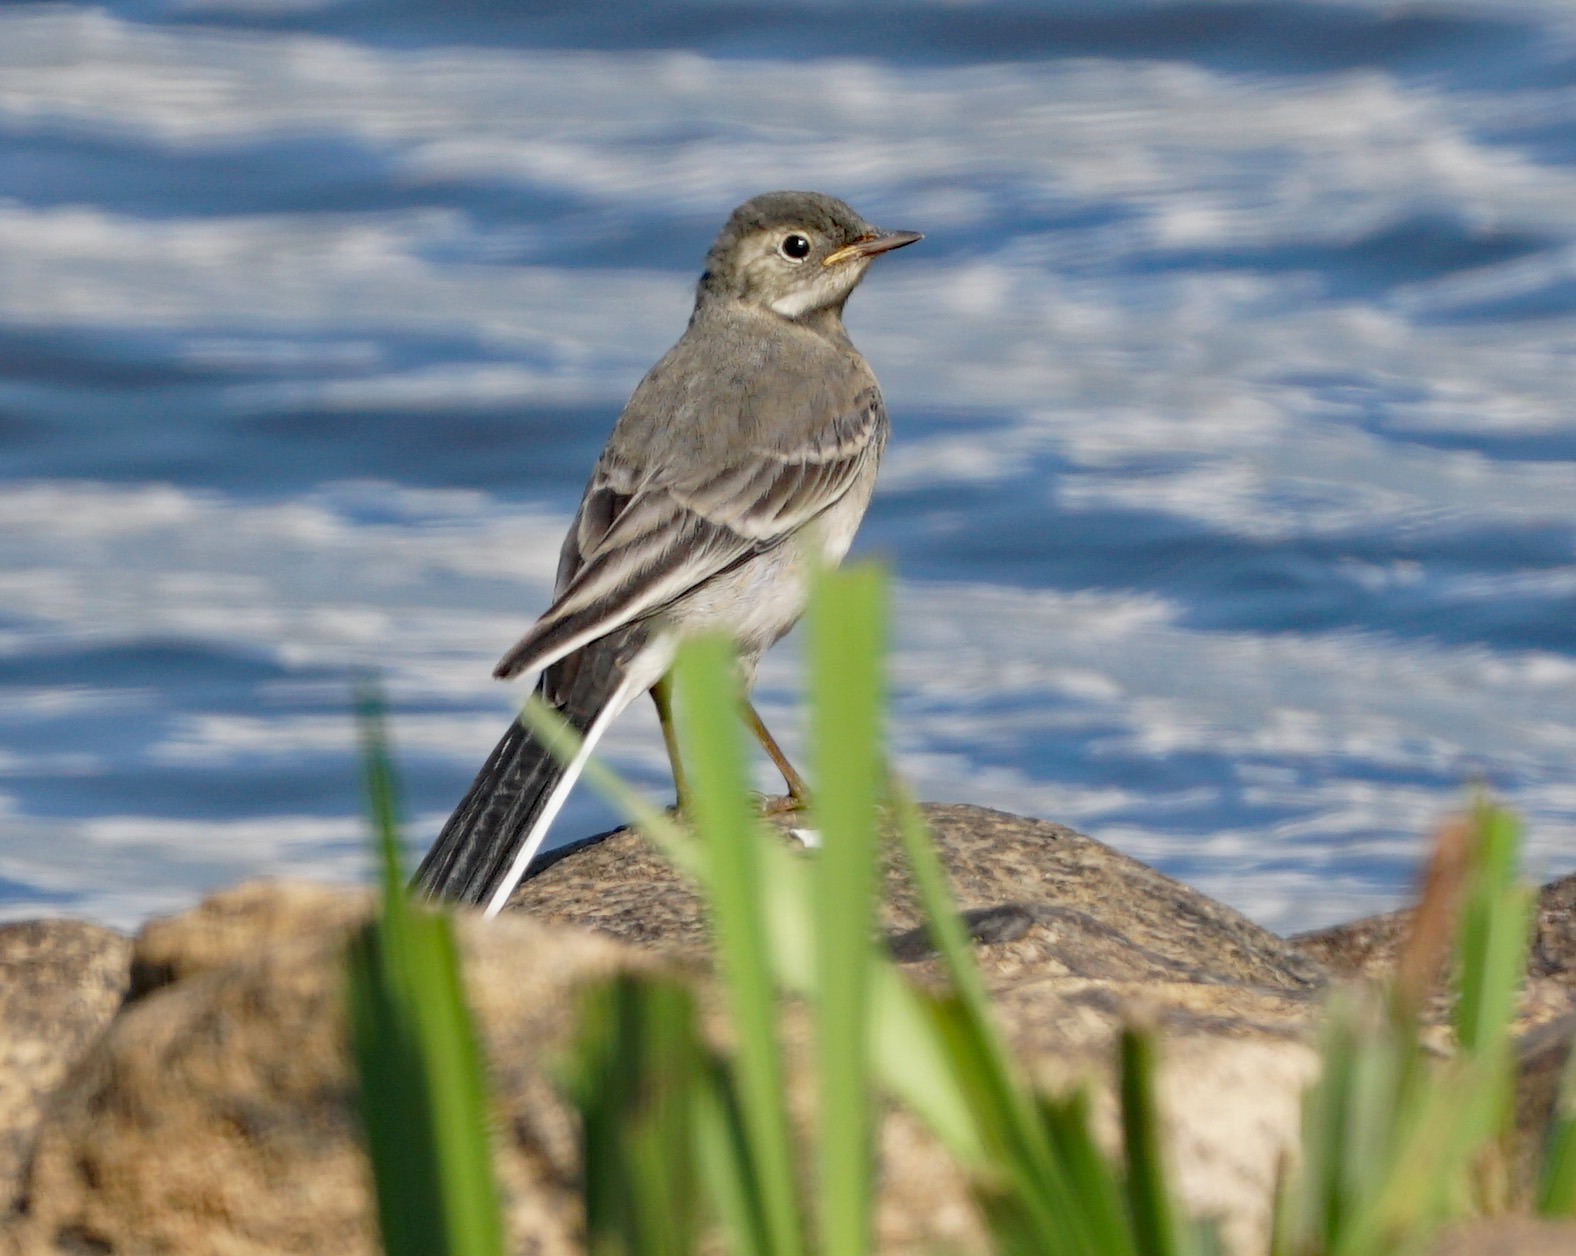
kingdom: Animalia
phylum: Chordata
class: Aves
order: Passeriformes
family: Motacillidae
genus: Motacilla
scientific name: Motacilla alba
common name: Hvid vipstjert
